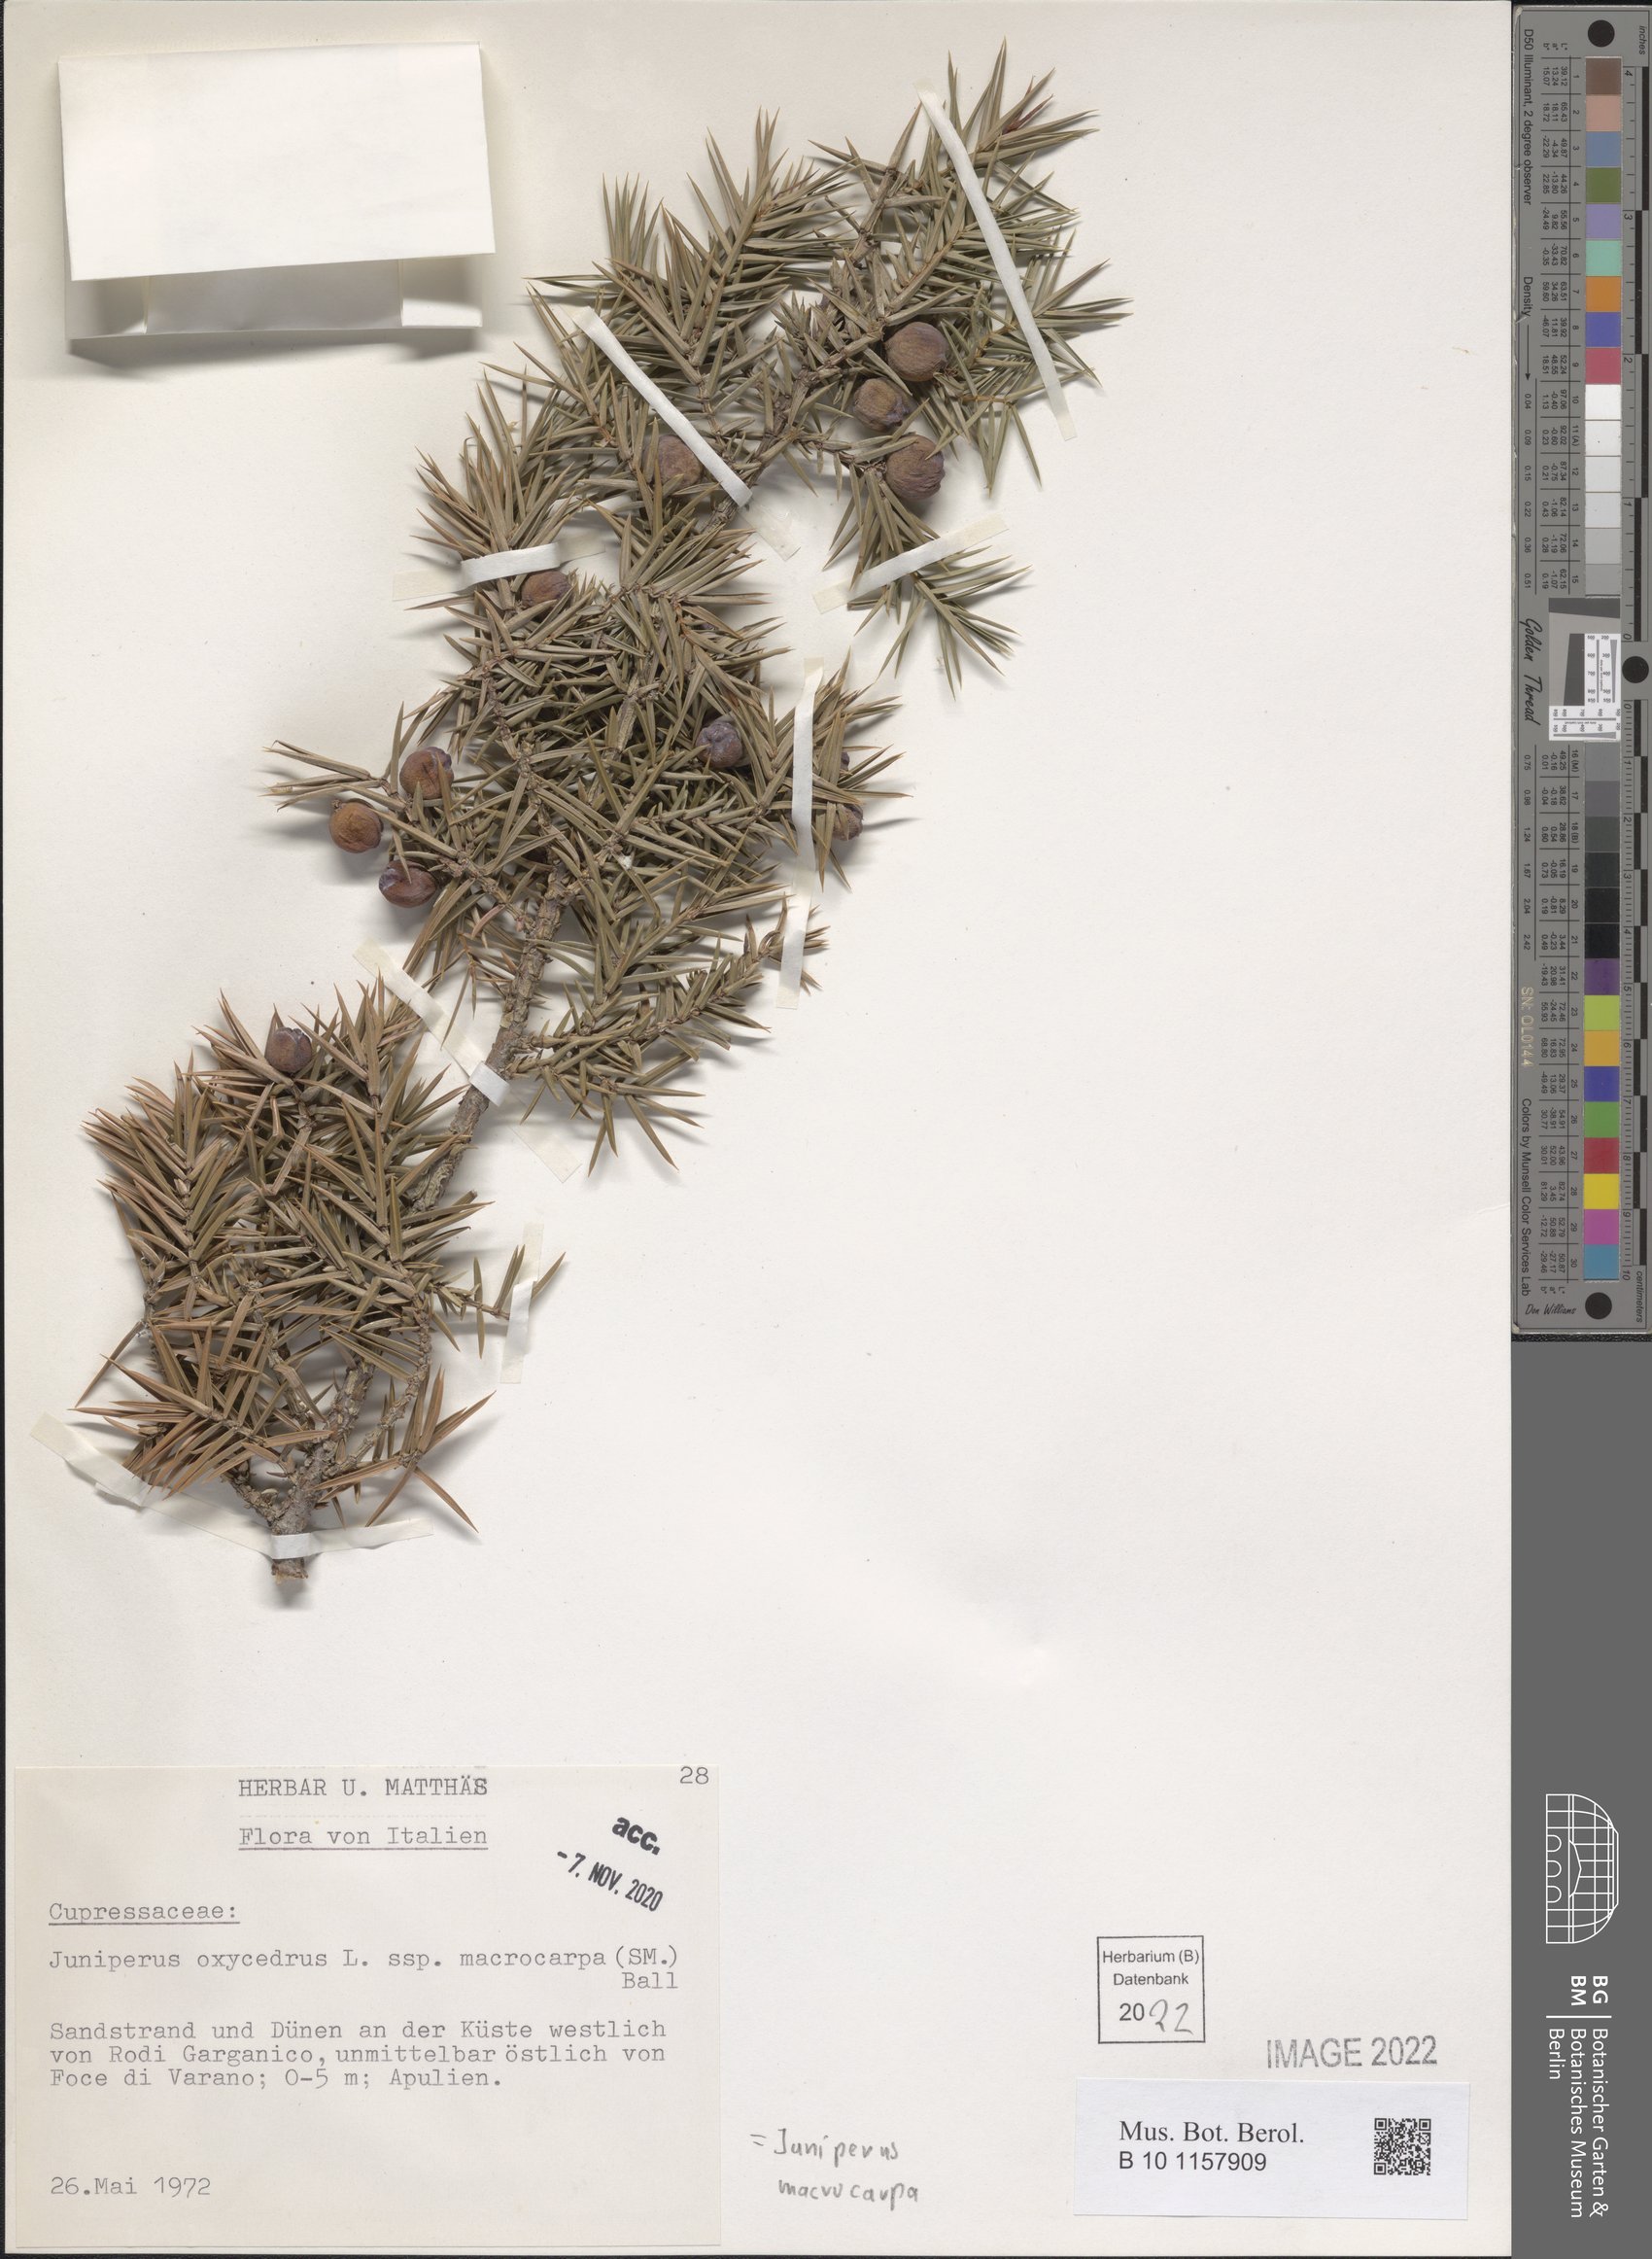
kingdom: Plantae
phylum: Tracheophyta
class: Pinopsida
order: Pinales
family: Cupressaceae
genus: Juniperus
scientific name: Juniperus oxycedrus
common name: Prickly juniper
